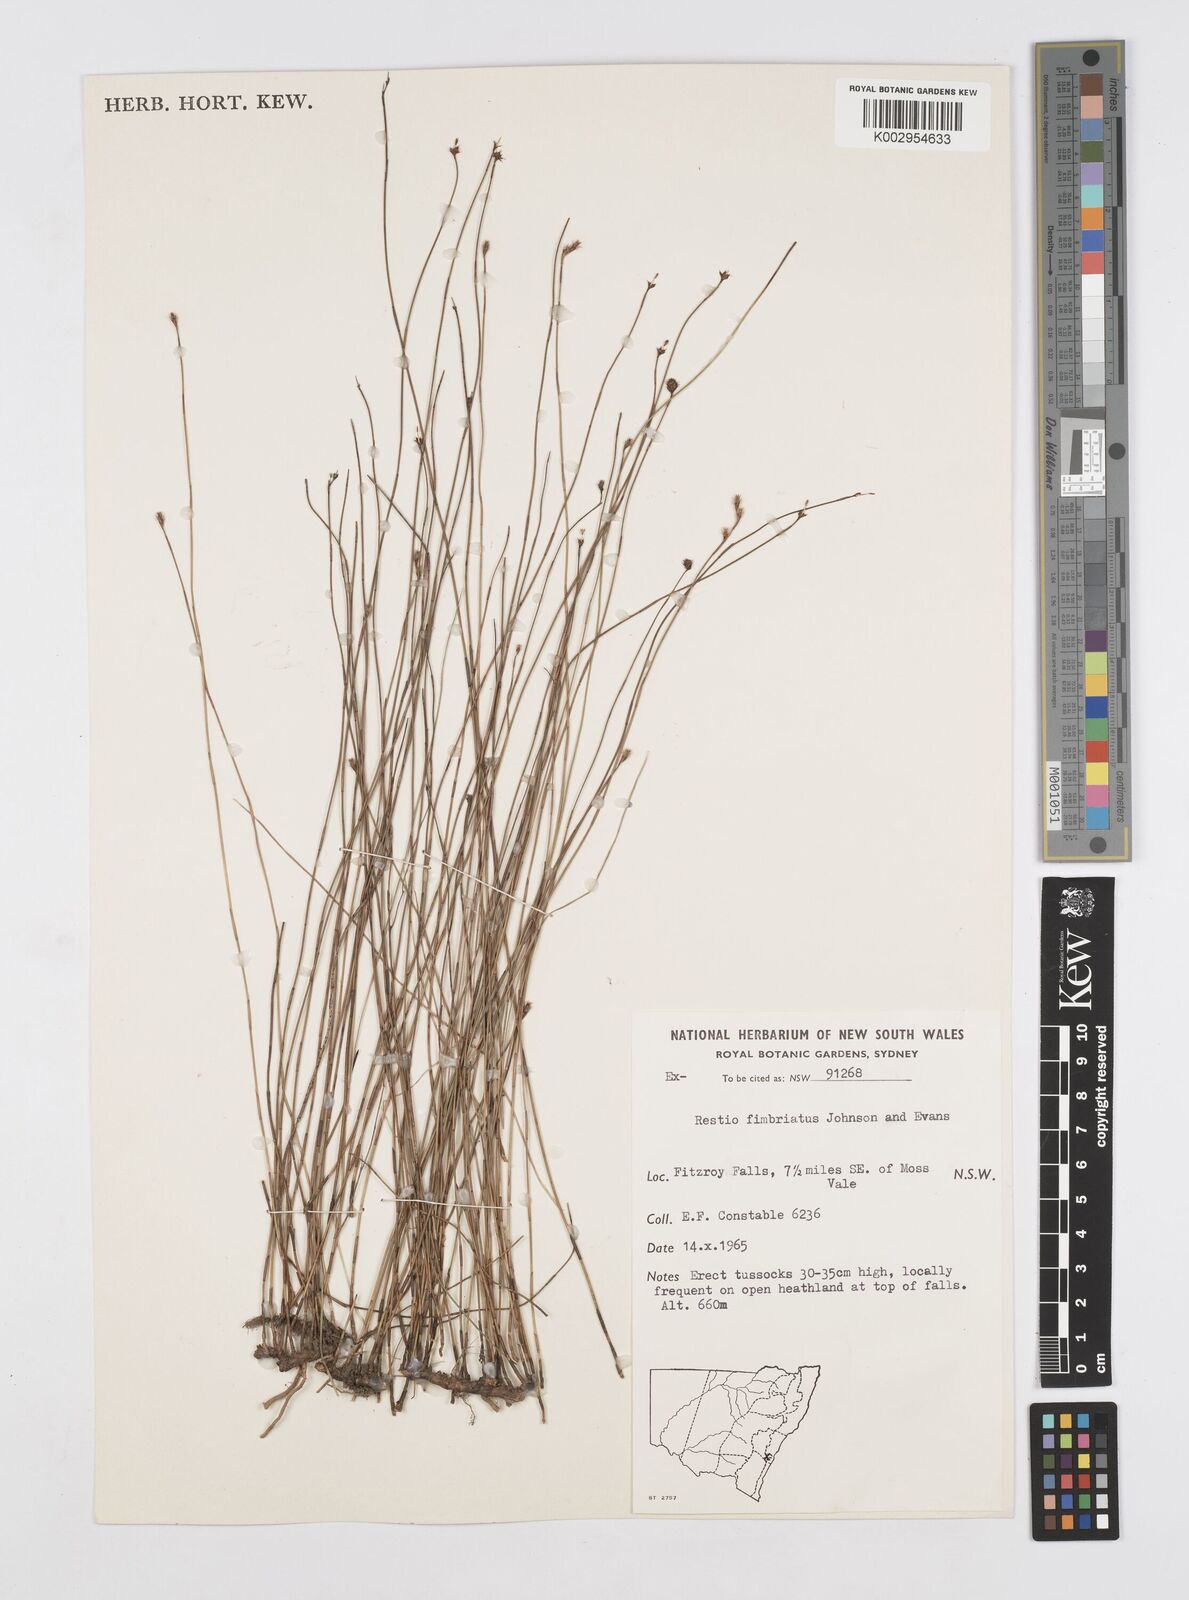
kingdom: Plantae
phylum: Tracheophyta
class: Liliopsida
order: Poales
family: Restionaceae
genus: Baloskion
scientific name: Baloskion fimbriatum
